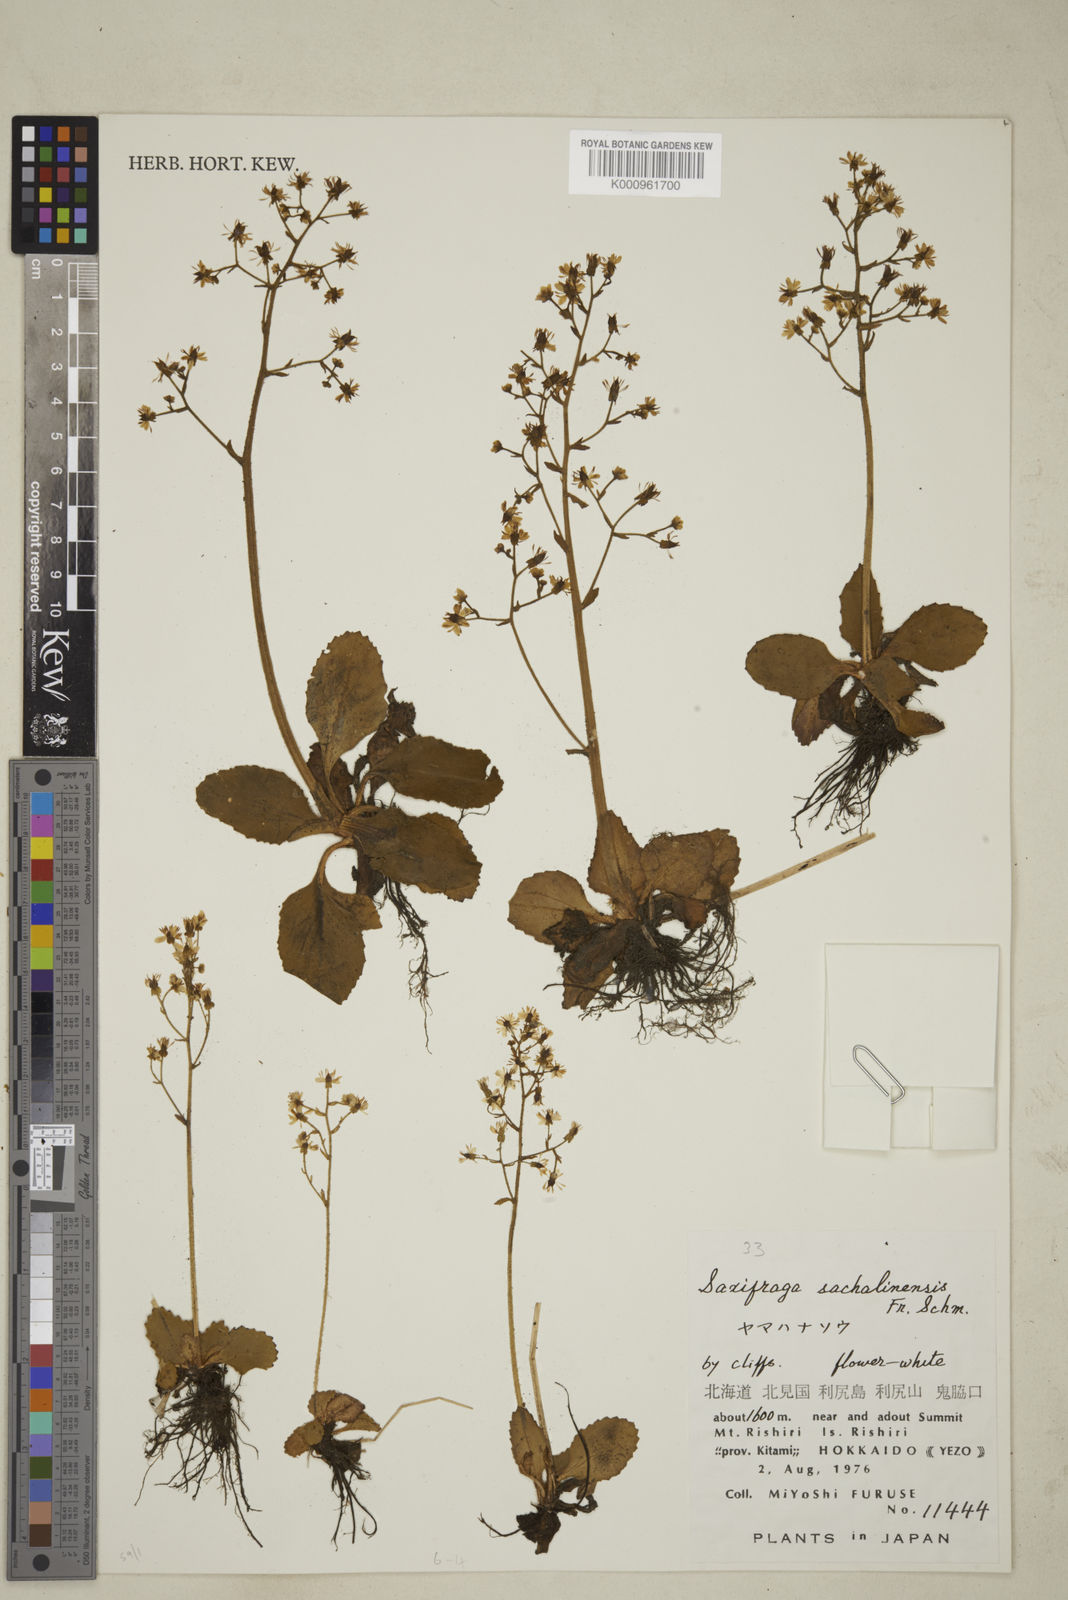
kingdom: Plantae
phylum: Tracheophyta
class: Magnoliopsida
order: Saxifragales
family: Saxifragaceae
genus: Micranthes
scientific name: Micranthes sachalinensis
